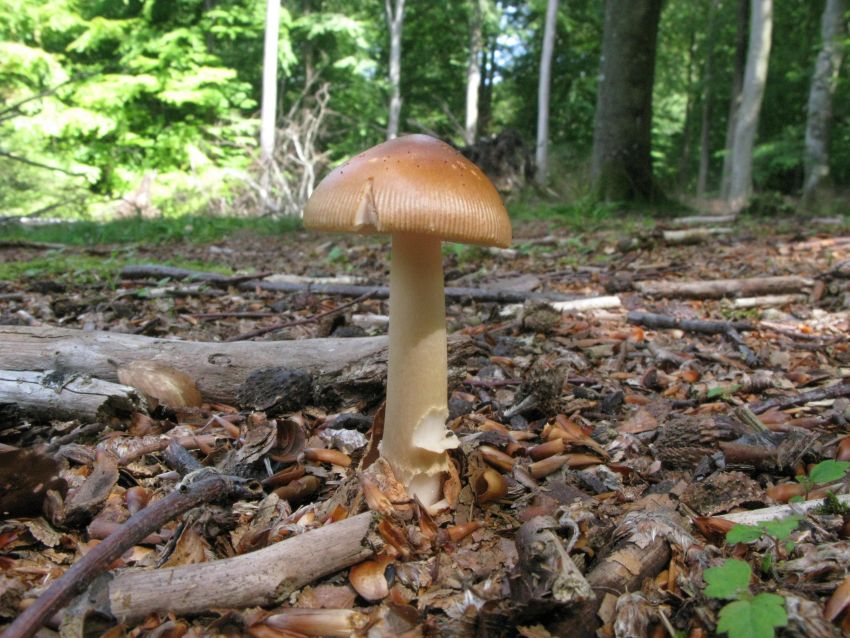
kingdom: Fungi
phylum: Basidiomycota
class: Agaricomycetes
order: Agaricales
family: Amanitaceae
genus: Amanita
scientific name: Amanita fulva
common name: brun kam-fluesvamp
